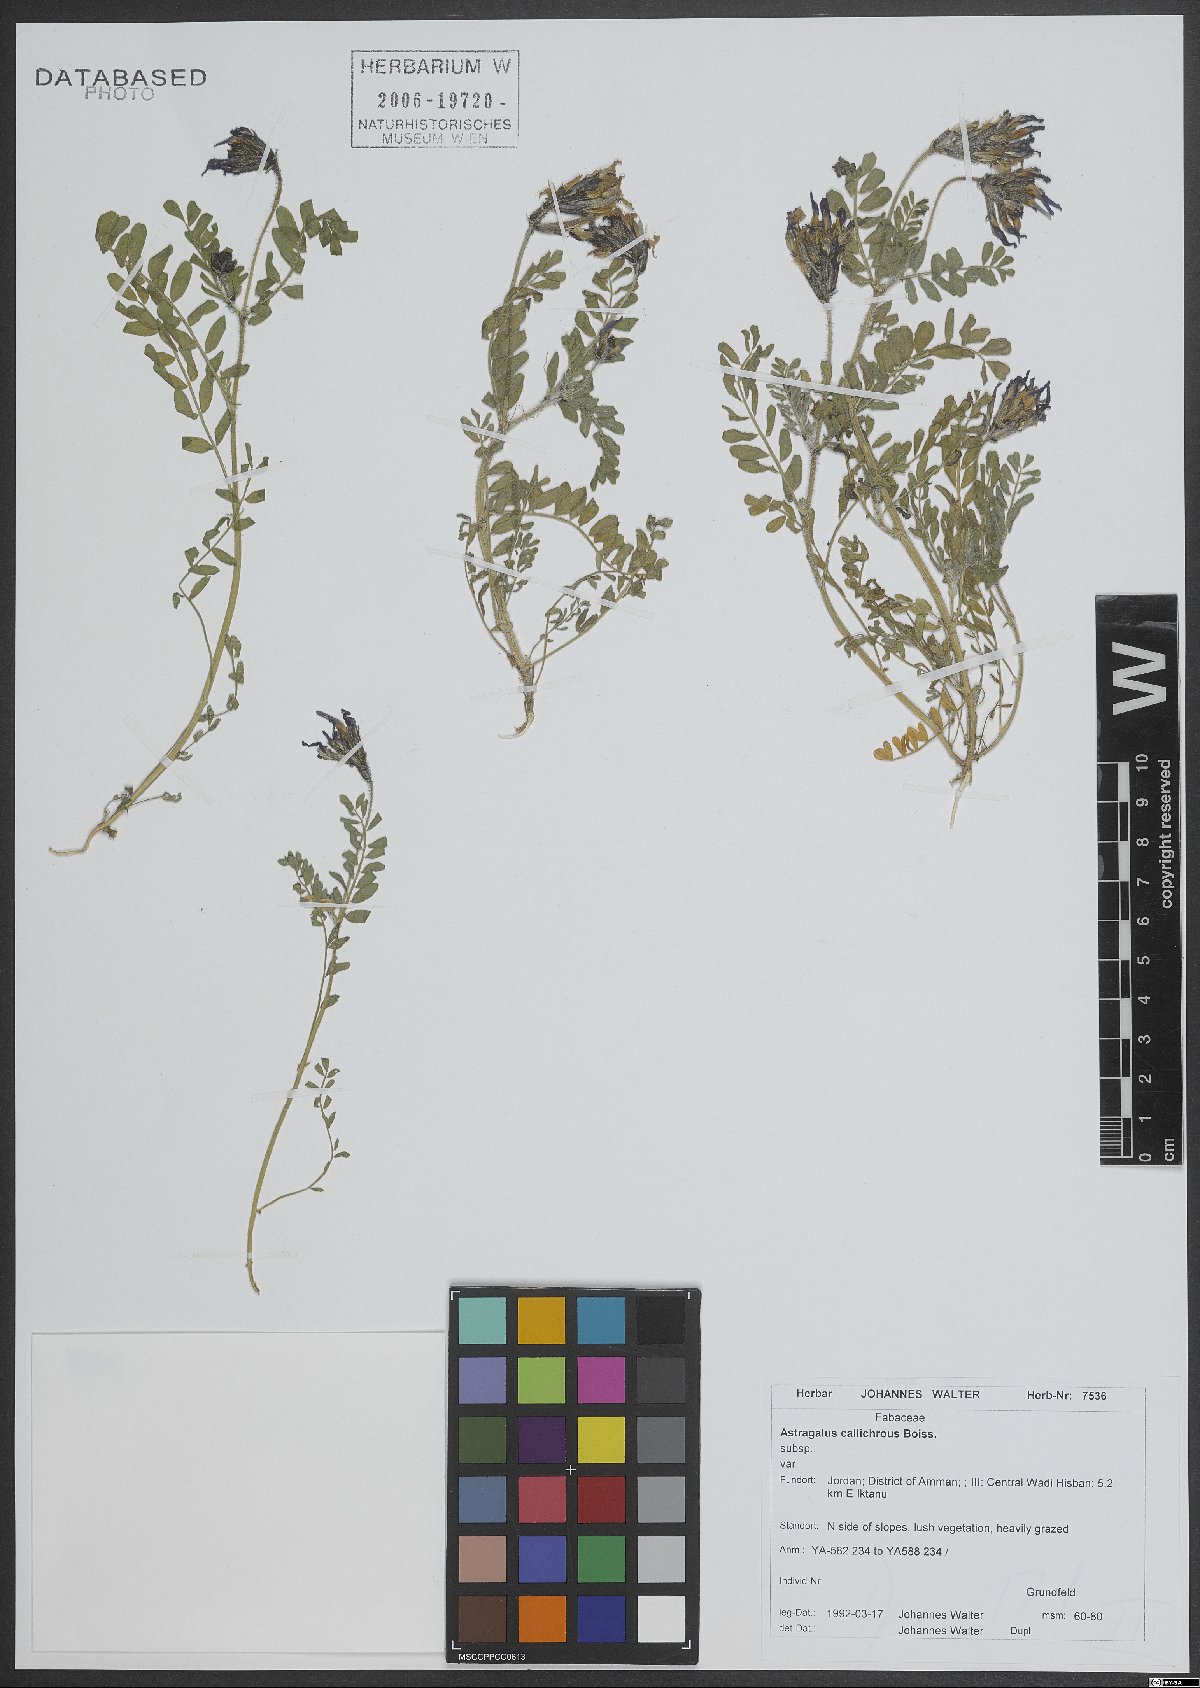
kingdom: Plantae
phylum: Tracheophyta
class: Magnoliopsida
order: Fabales
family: Fabaceae
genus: Astragalus
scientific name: Astragalus callichrous
